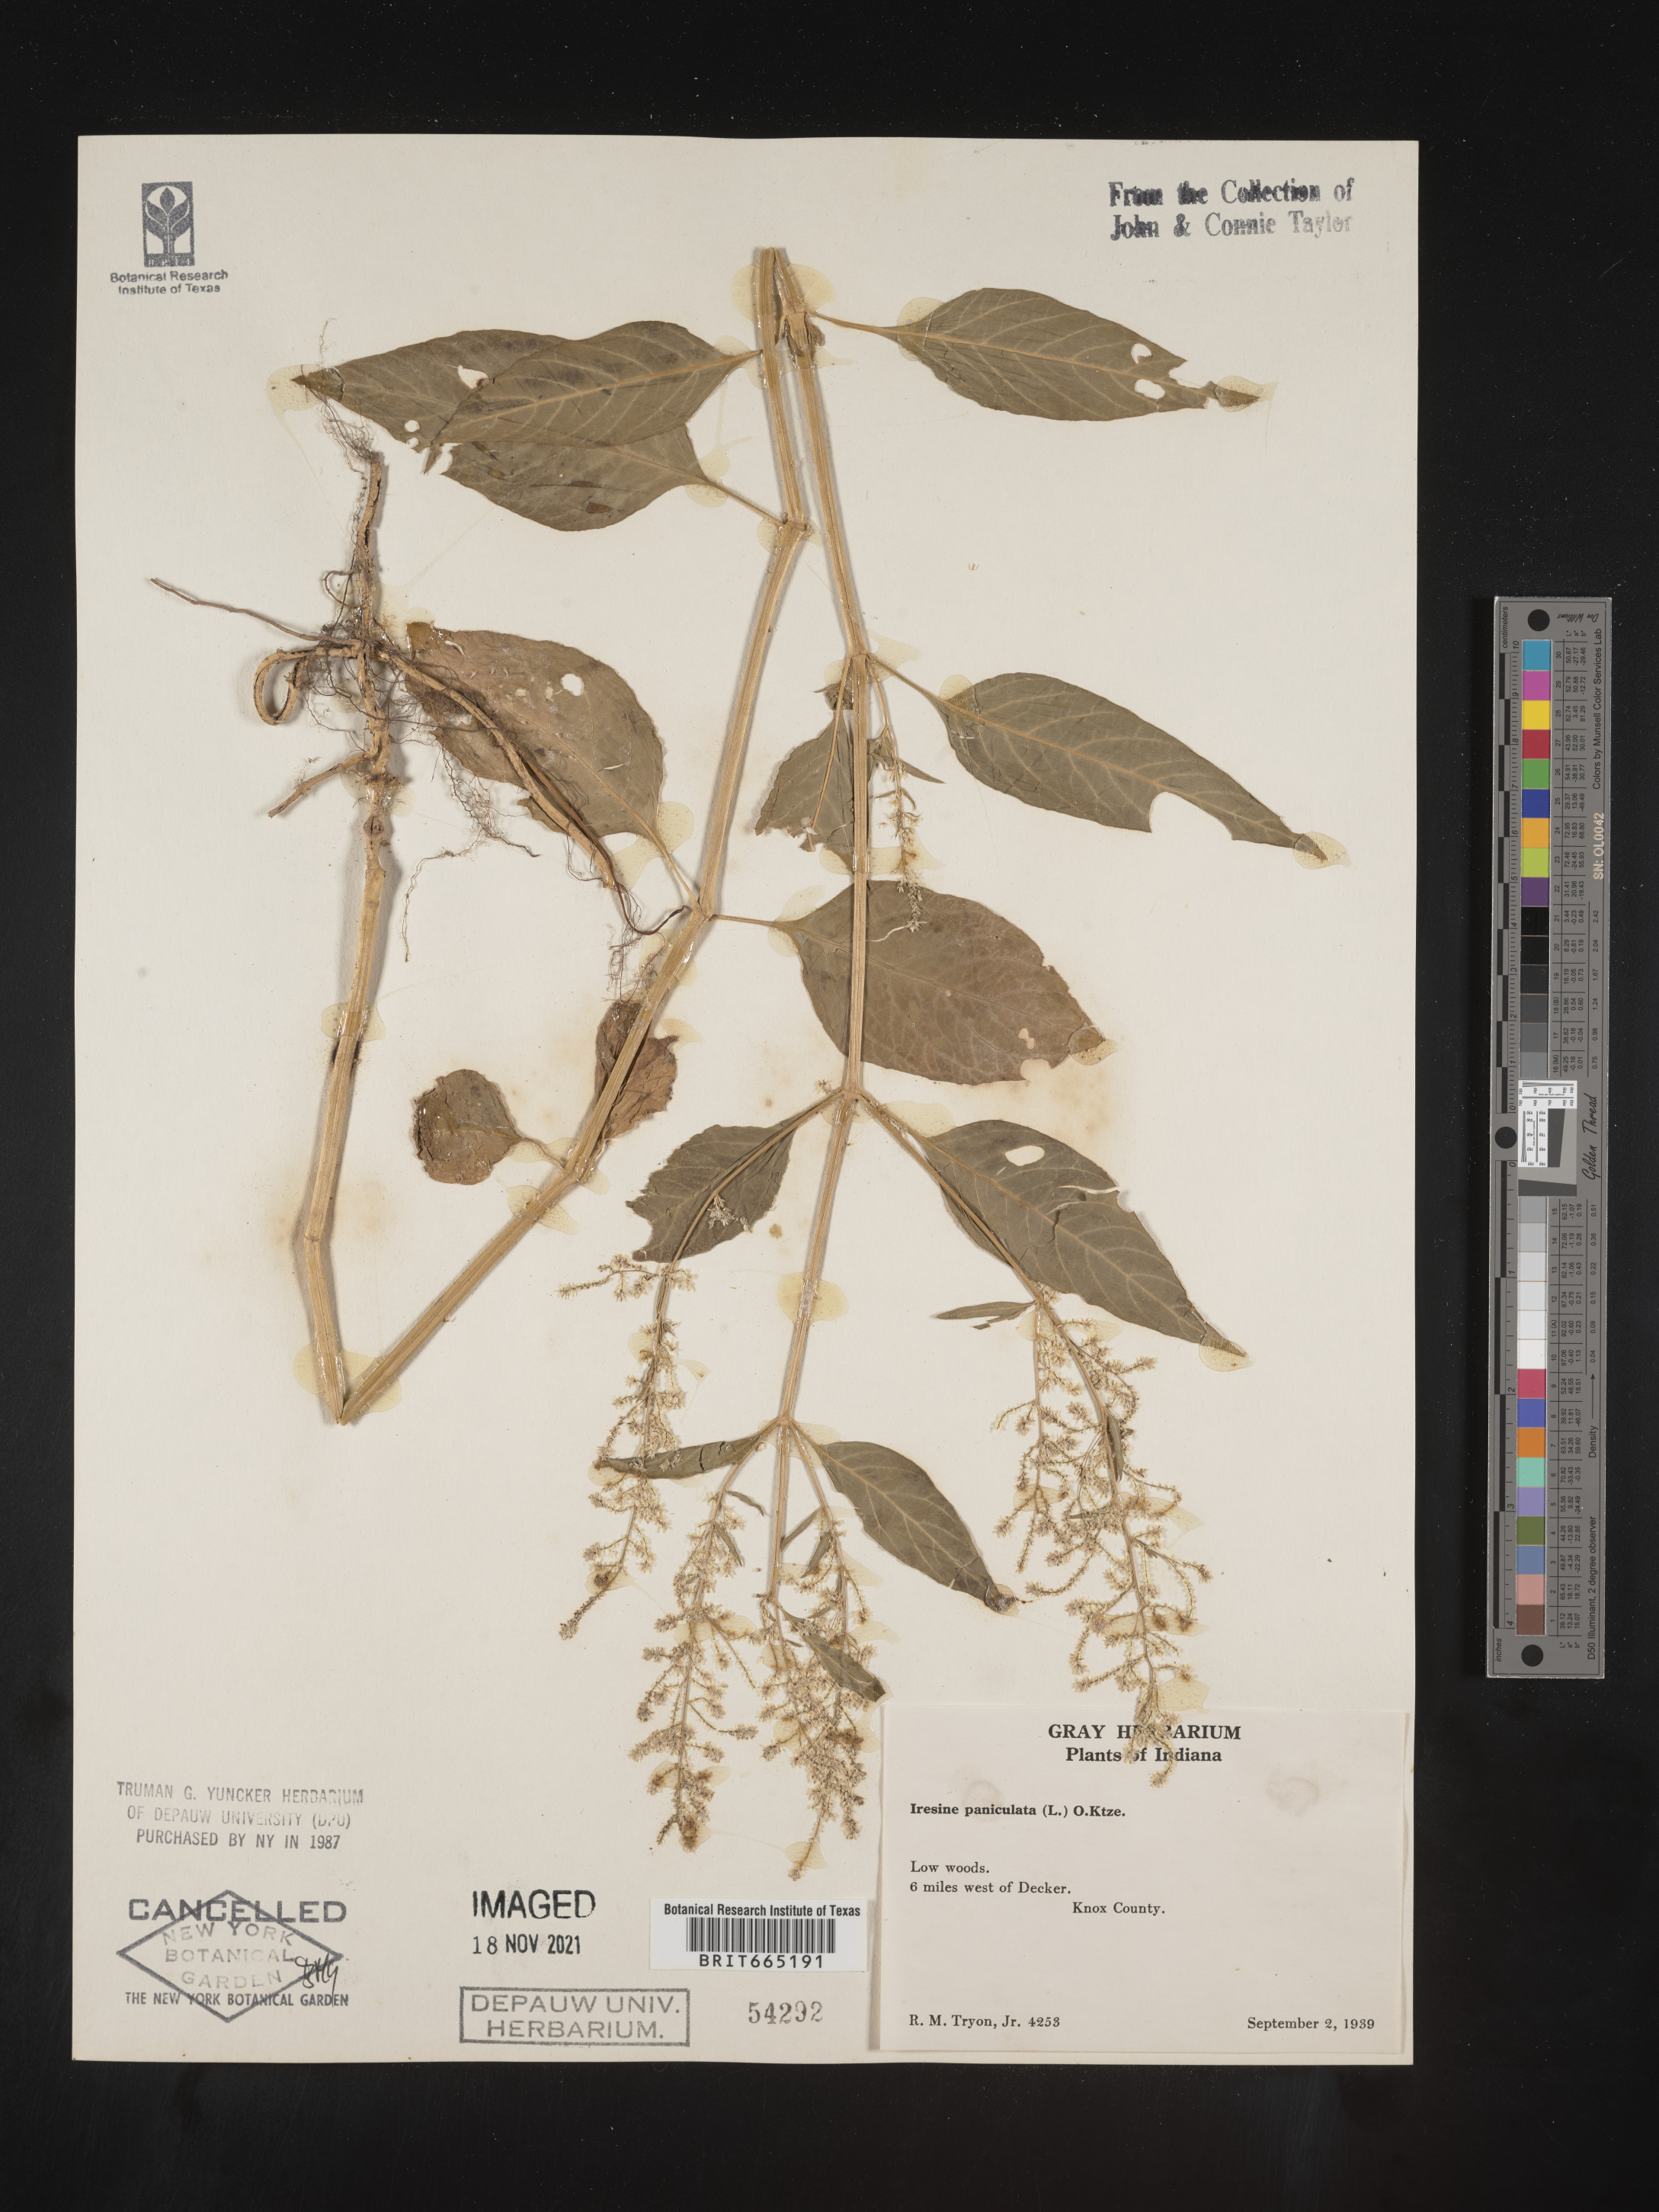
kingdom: Plantae
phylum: Tracheophyta
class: Magnoliopsida
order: Caryophyllales
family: Amaranthaceae
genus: Iresine
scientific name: Iresine rhizomatosa
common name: Juda's-bush
